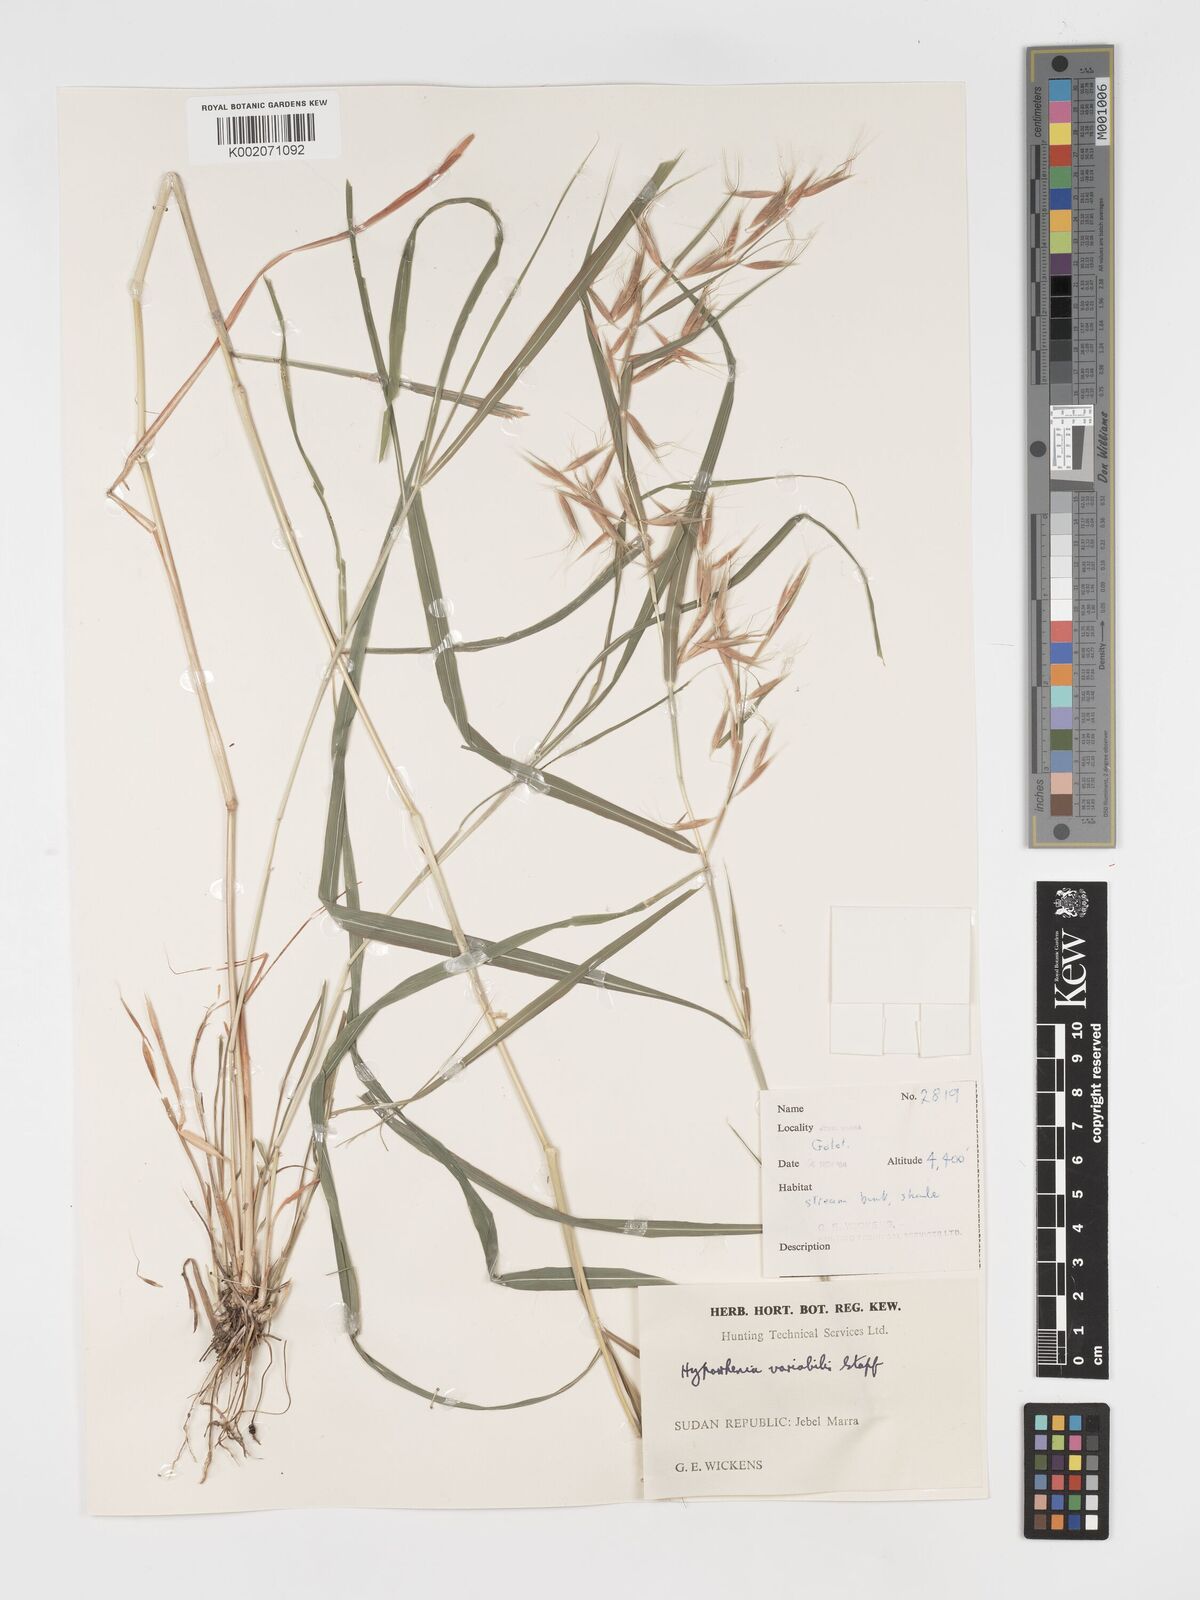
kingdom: Plantae
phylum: Tracheophyta
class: Liliopsida
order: Poales
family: Poaceae
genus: Hyparrhenia
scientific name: Hyparrhenia variabilis
